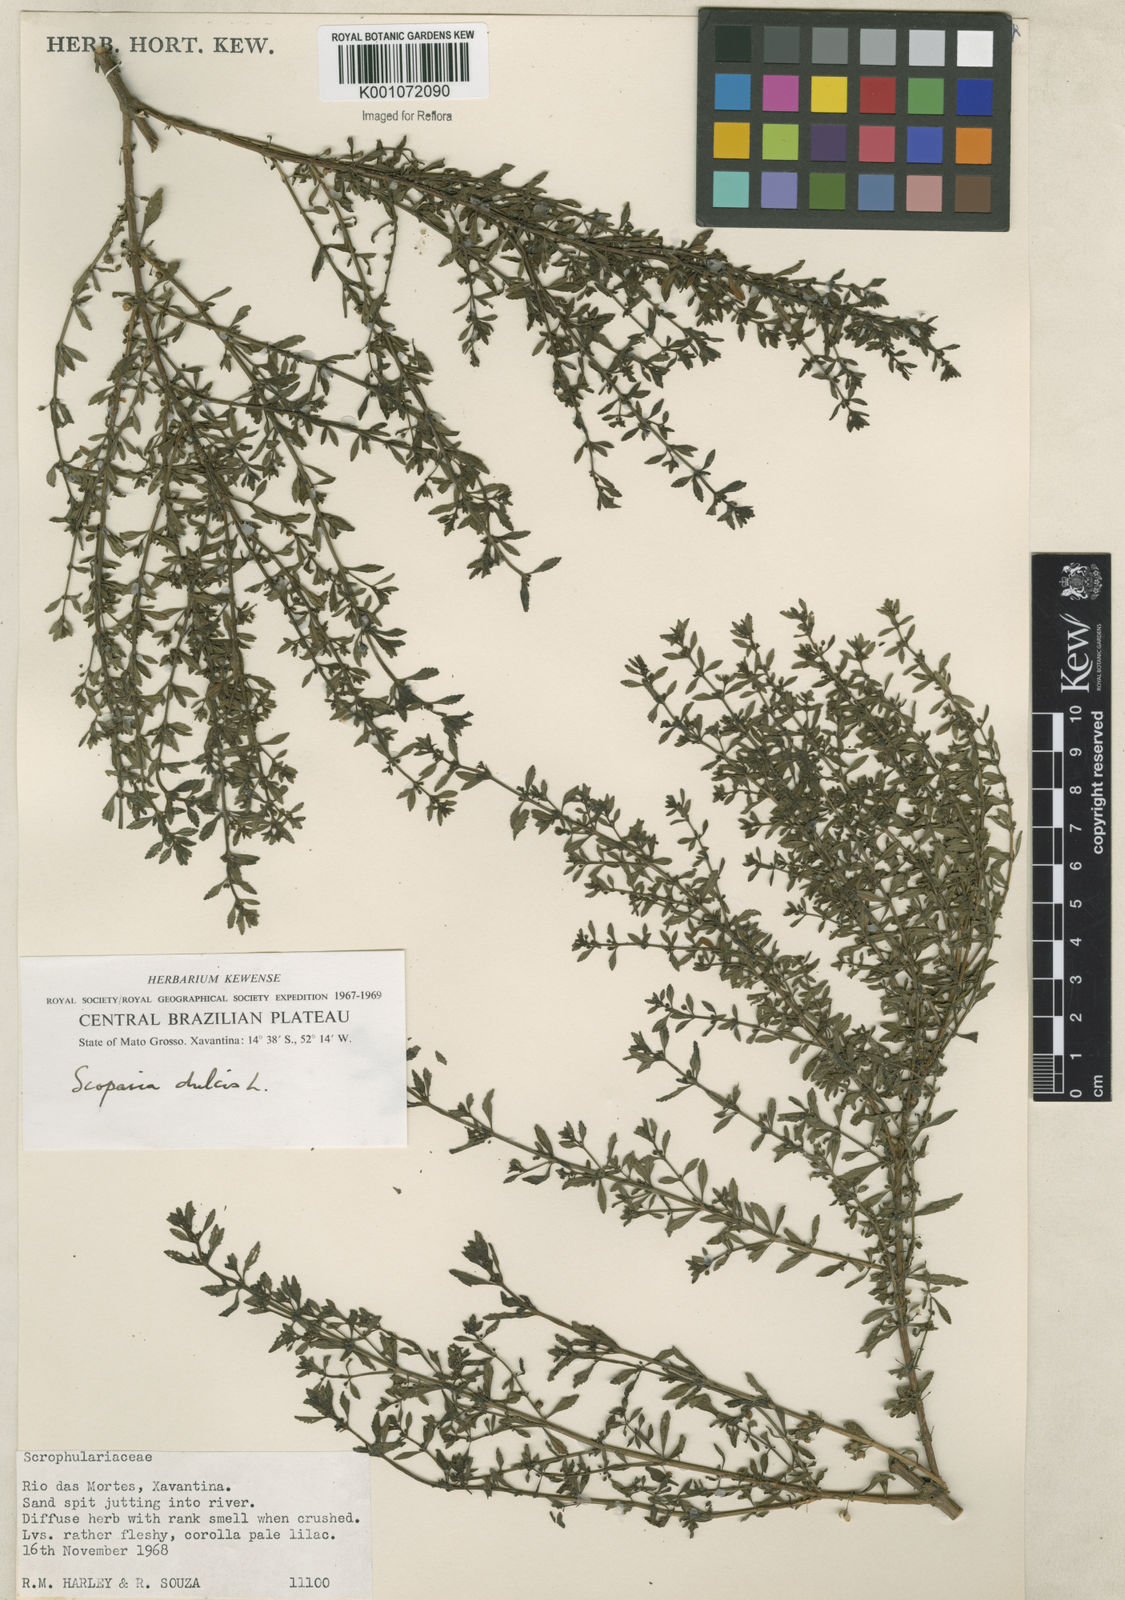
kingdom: Plantae
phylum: Tracheophyta
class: Magnoliopsida
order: Lamiales
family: Plantaginaceae
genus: Scoparia
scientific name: Scoparia dulcis
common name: Scoparia-weed
